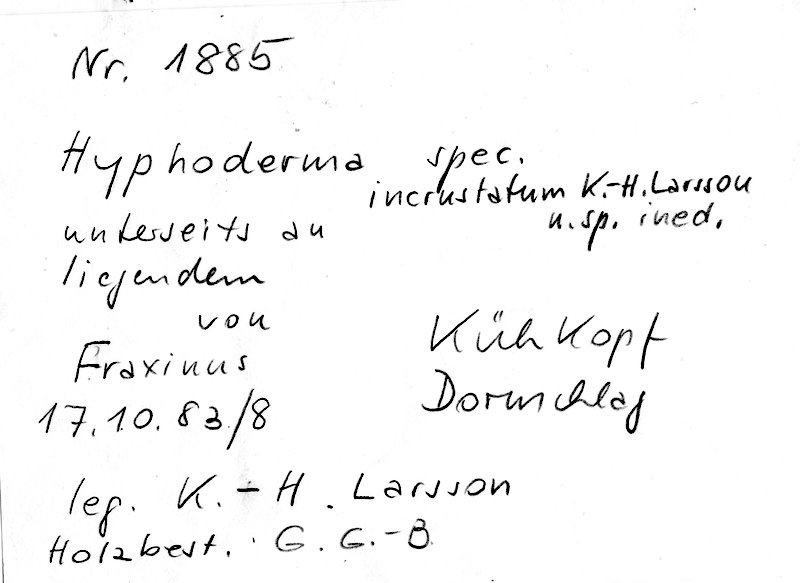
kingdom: Fungi
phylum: Basidiomycota
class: Agaricomycetes
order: Polyporales
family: Hyphodermataceae
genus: Hyphoderma
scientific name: Hyphoderma incrustatum
